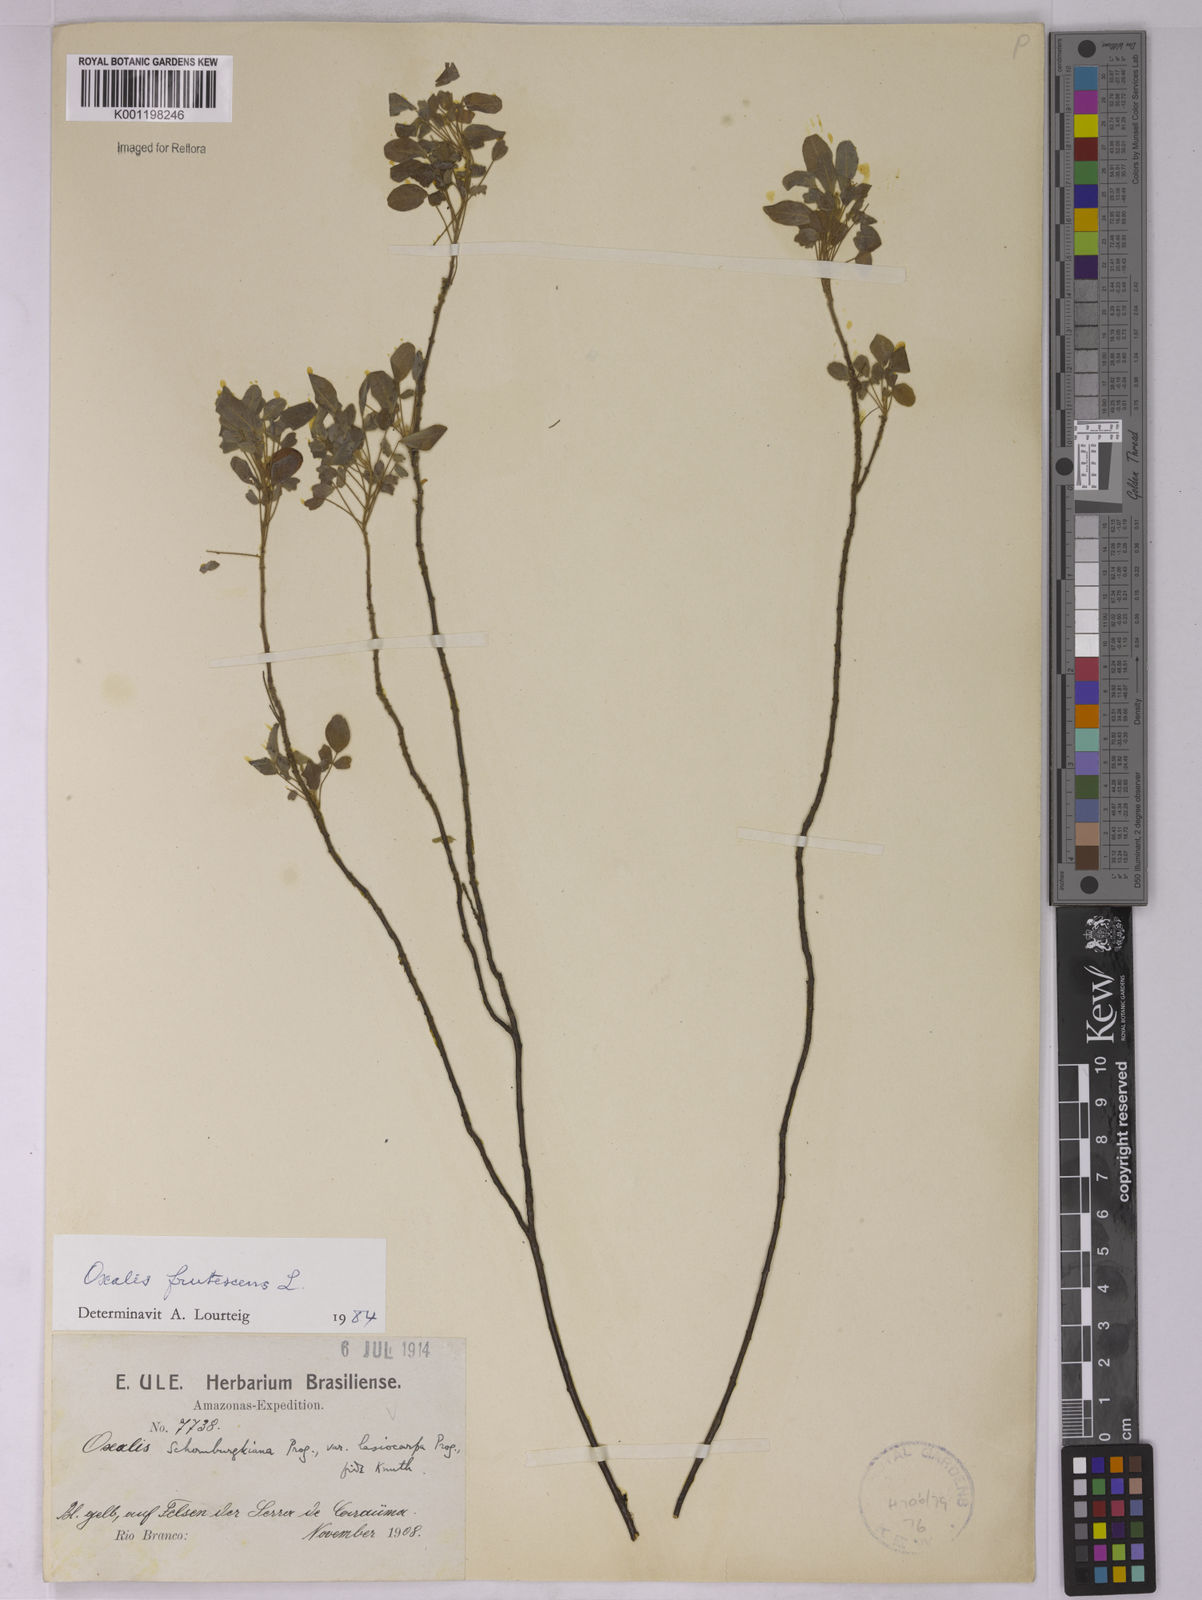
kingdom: Plantae
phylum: Tracheophyta
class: Magnoliopsida
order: Oxalidales
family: Oxalidaceae
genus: Oxalis
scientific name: Oxalis frutescens
